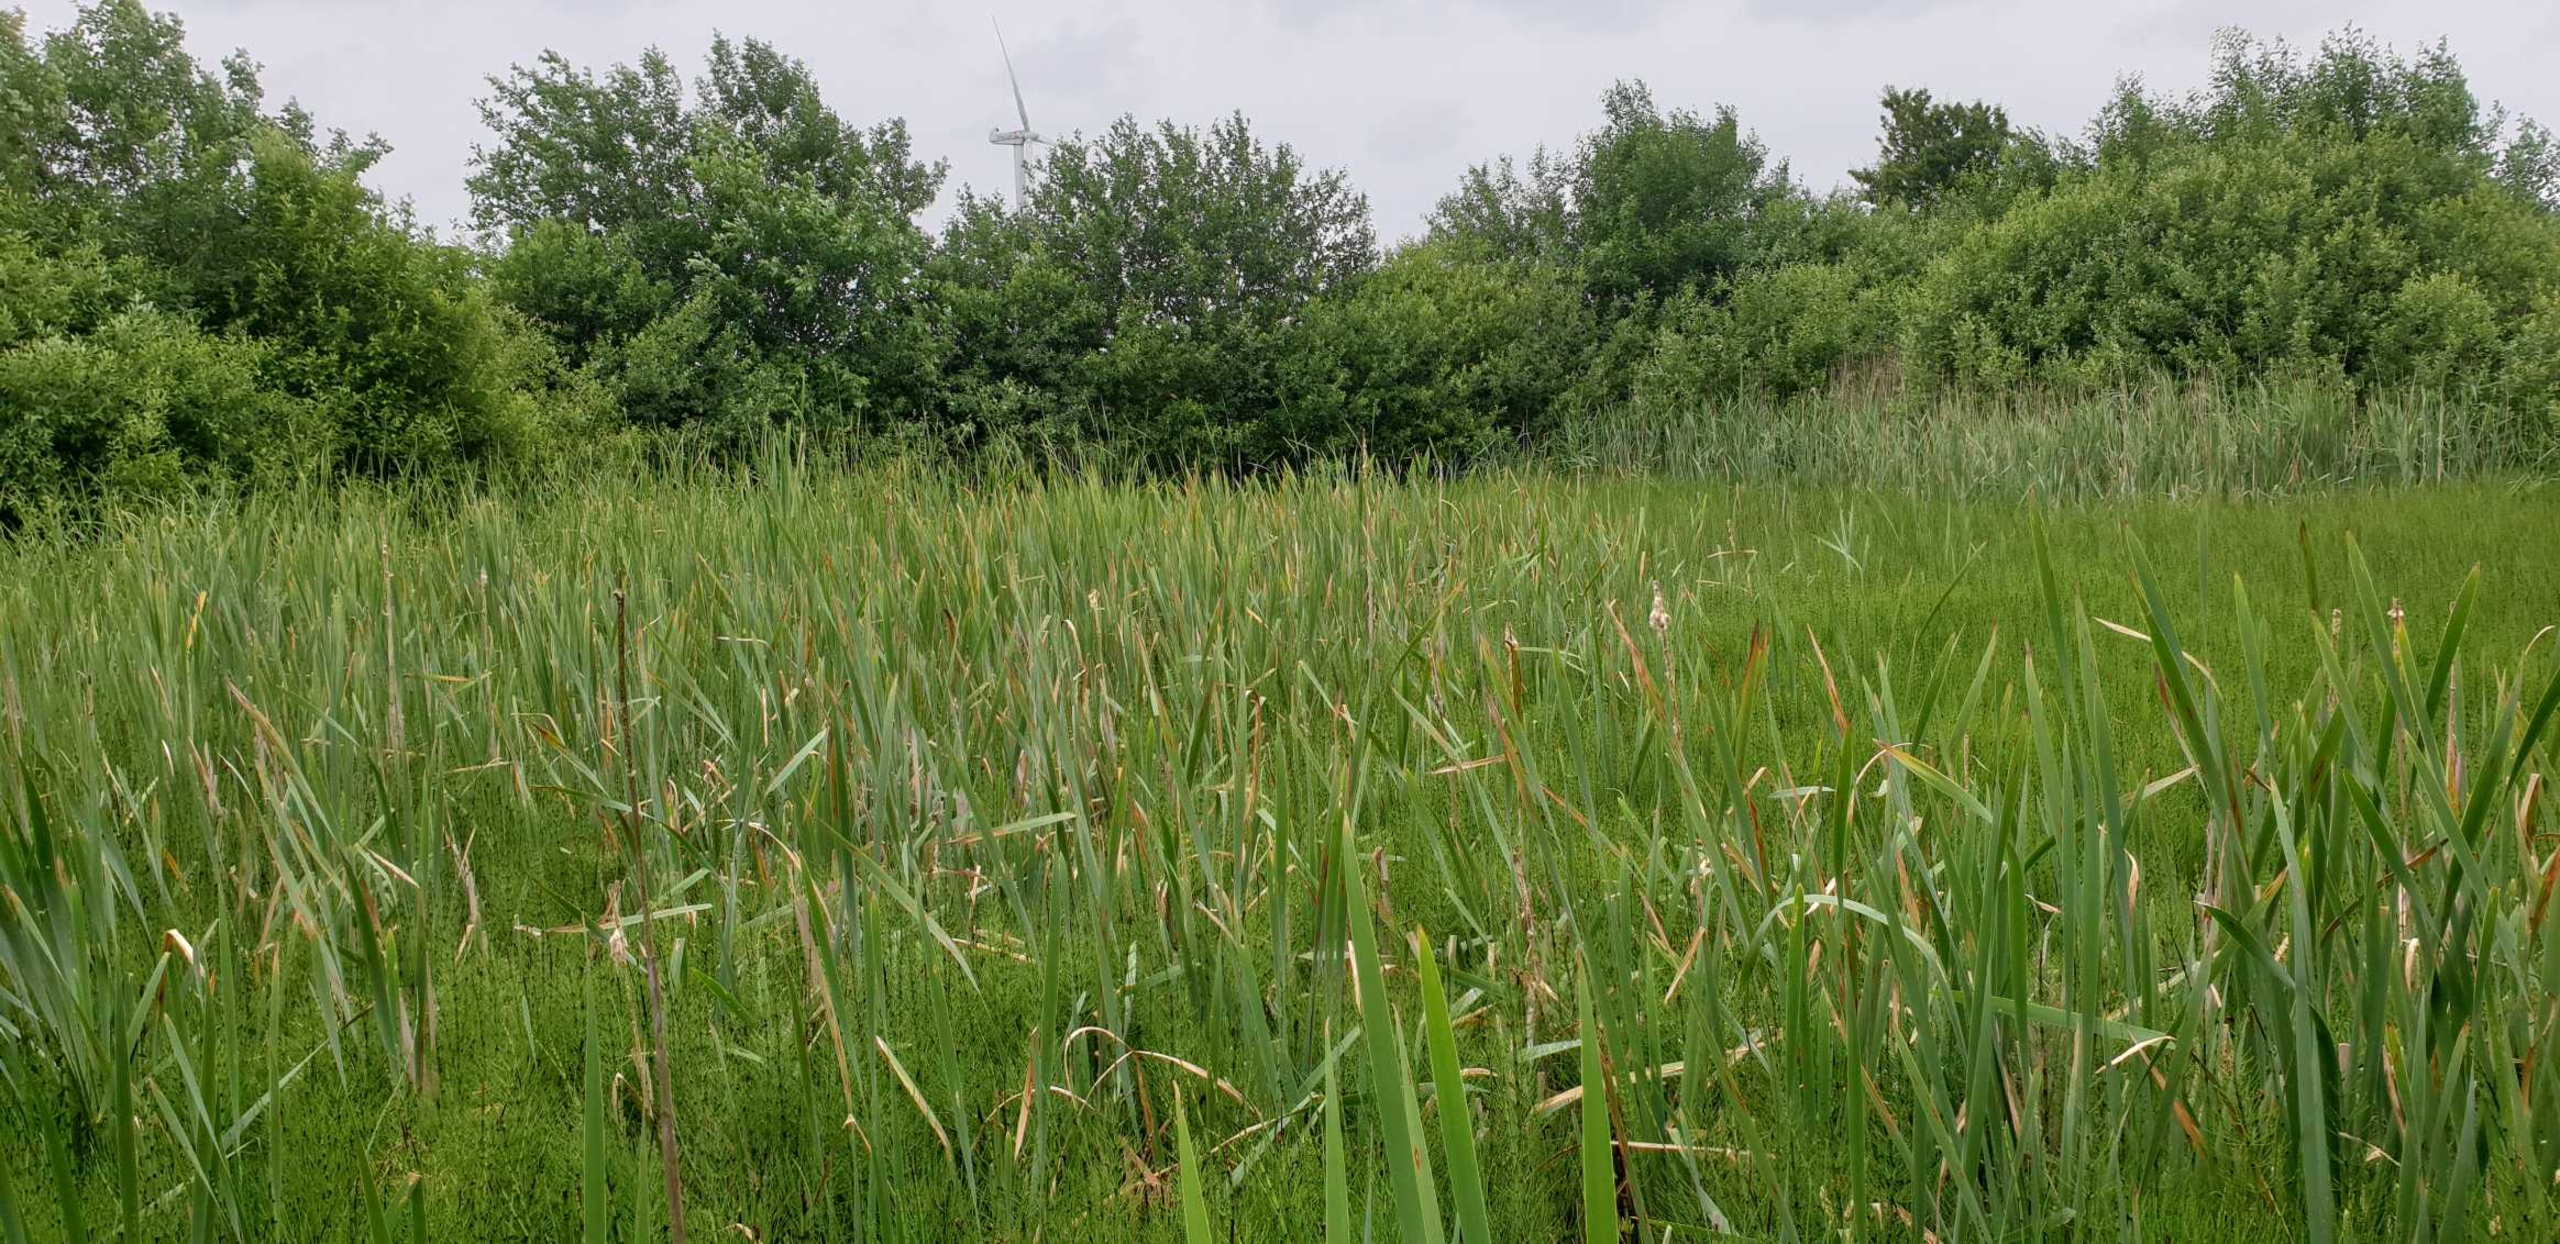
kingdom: Plantae
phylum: Tracheophyta
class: Liliopsida
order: Poales
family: Typhaceae
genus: Typha
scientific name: Typha latifolia
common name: Bredbladet dunhammer
